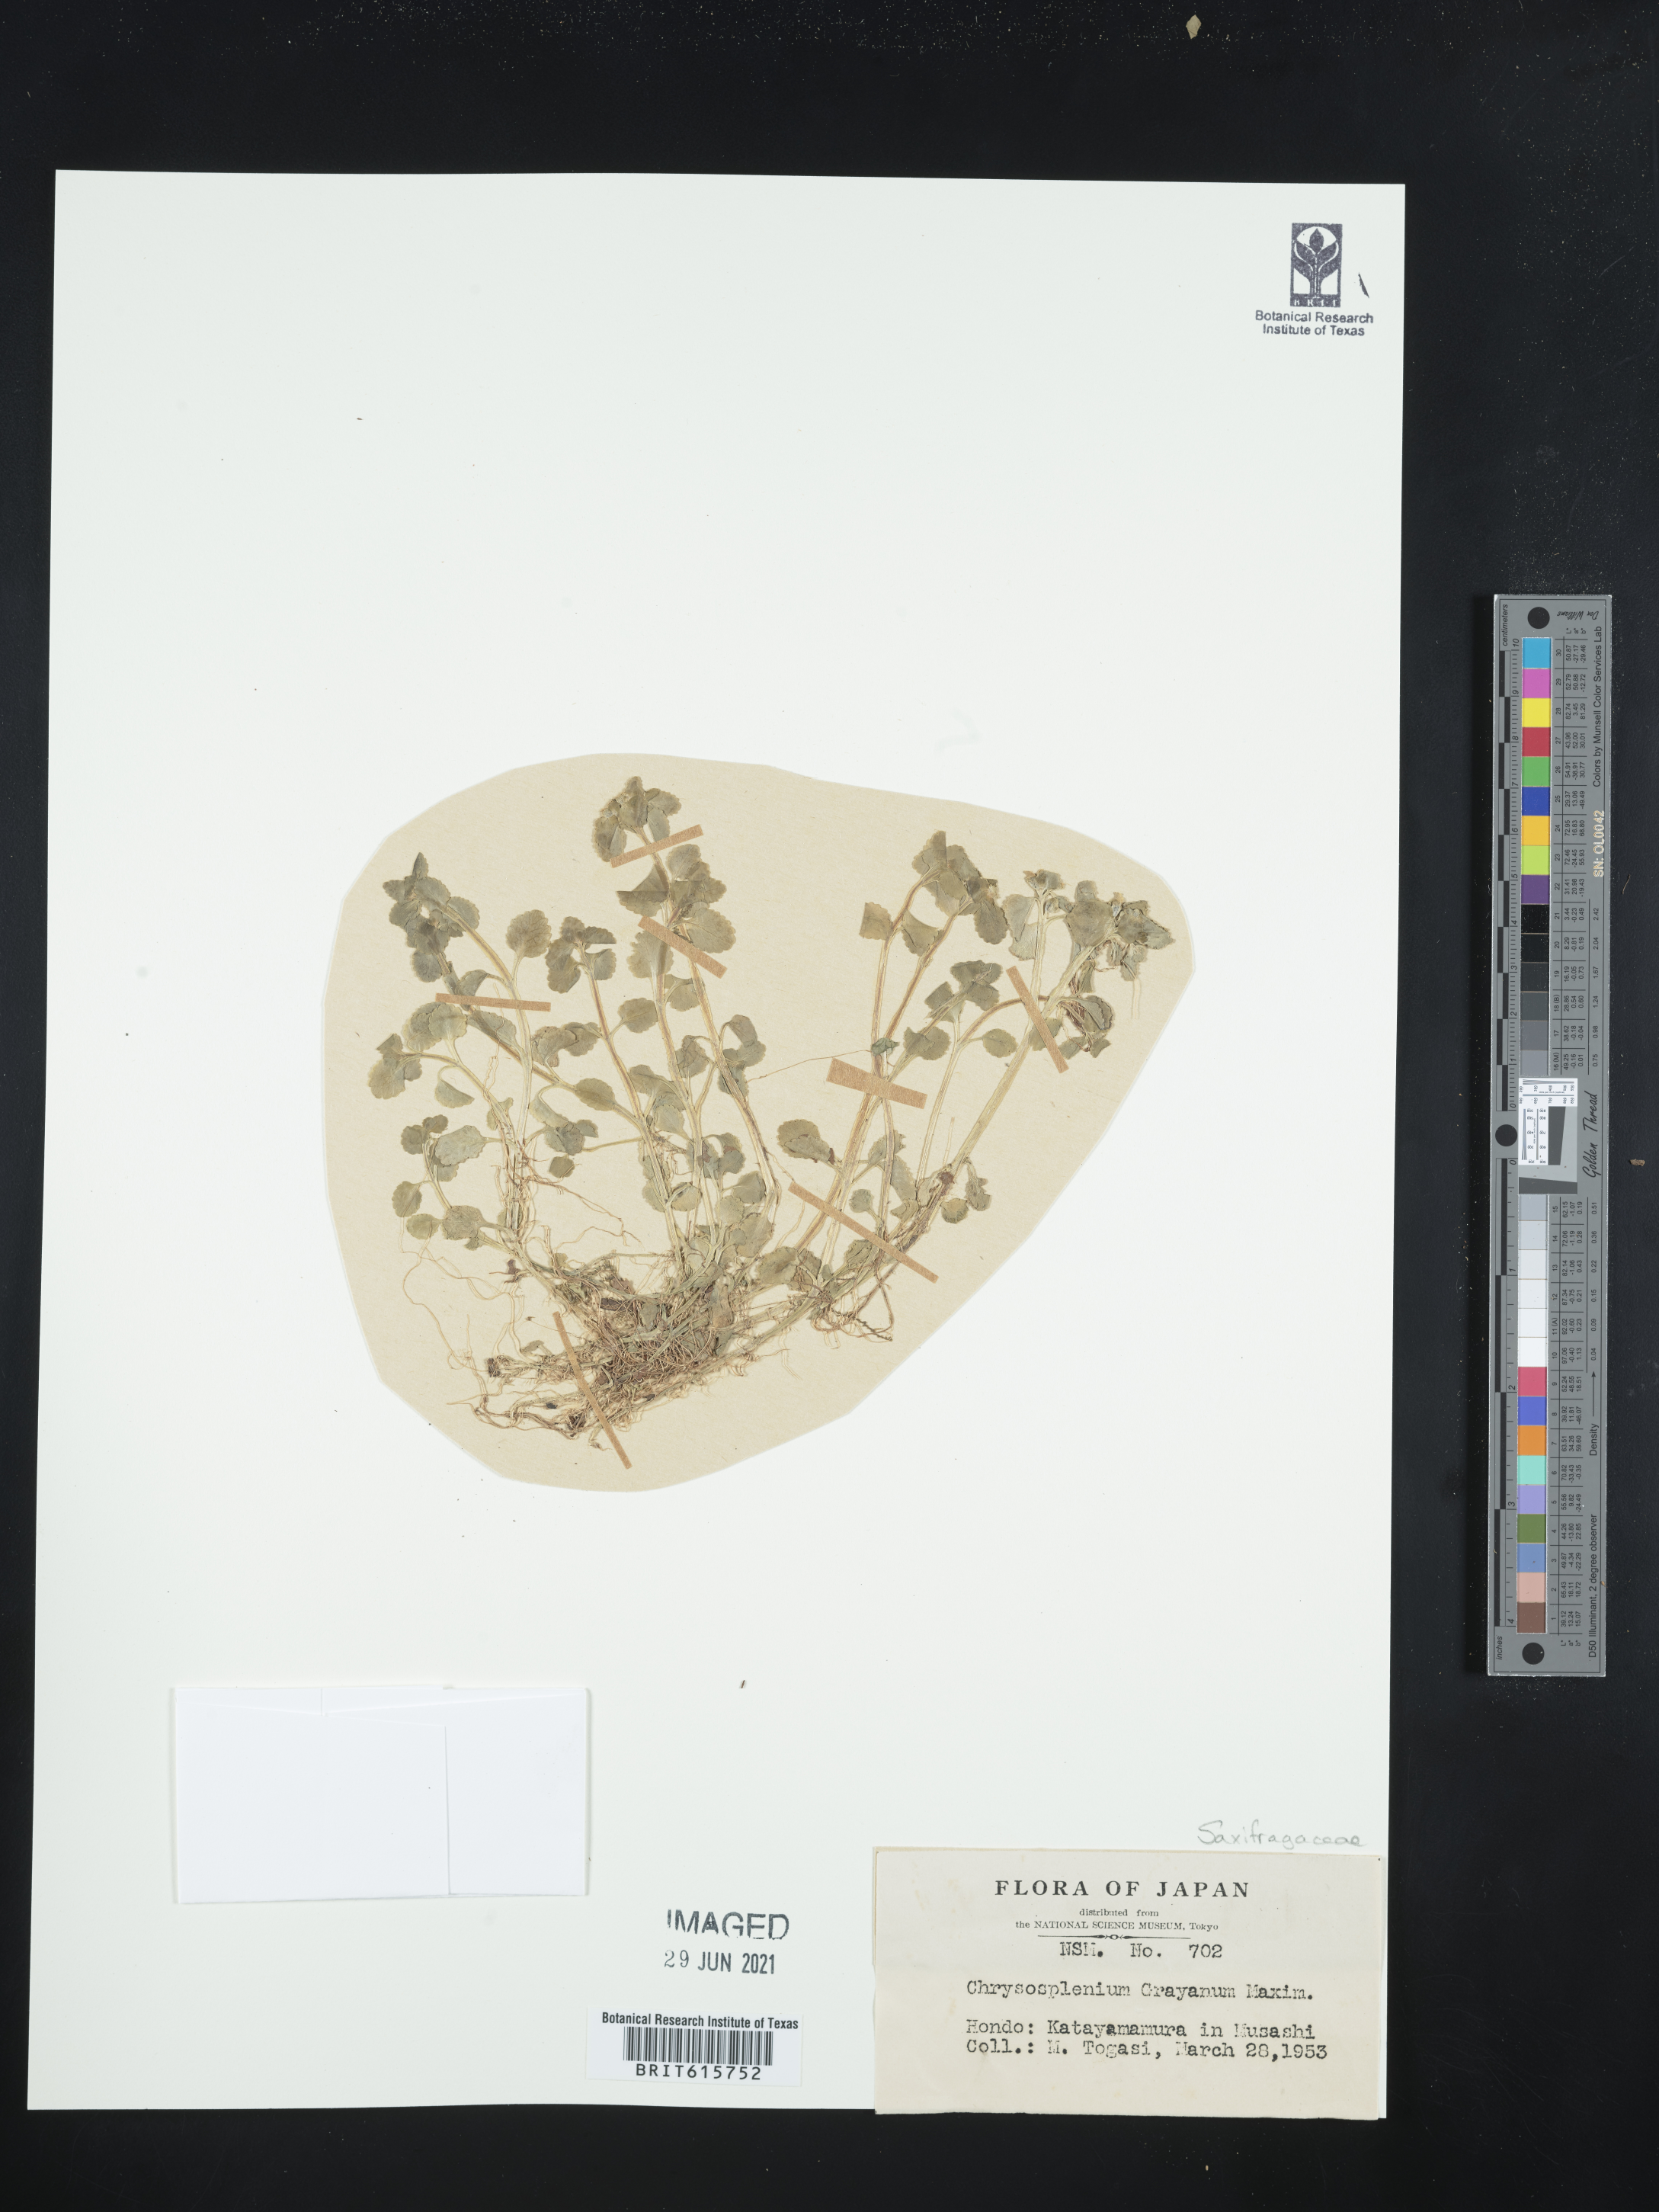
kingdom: Plantae
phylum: Tracheophyta
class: Magnoliopsida
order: Saxifragales
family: Saxifragaceae
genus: Chrysosplenium
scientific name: Chrysosplenium grayanum
